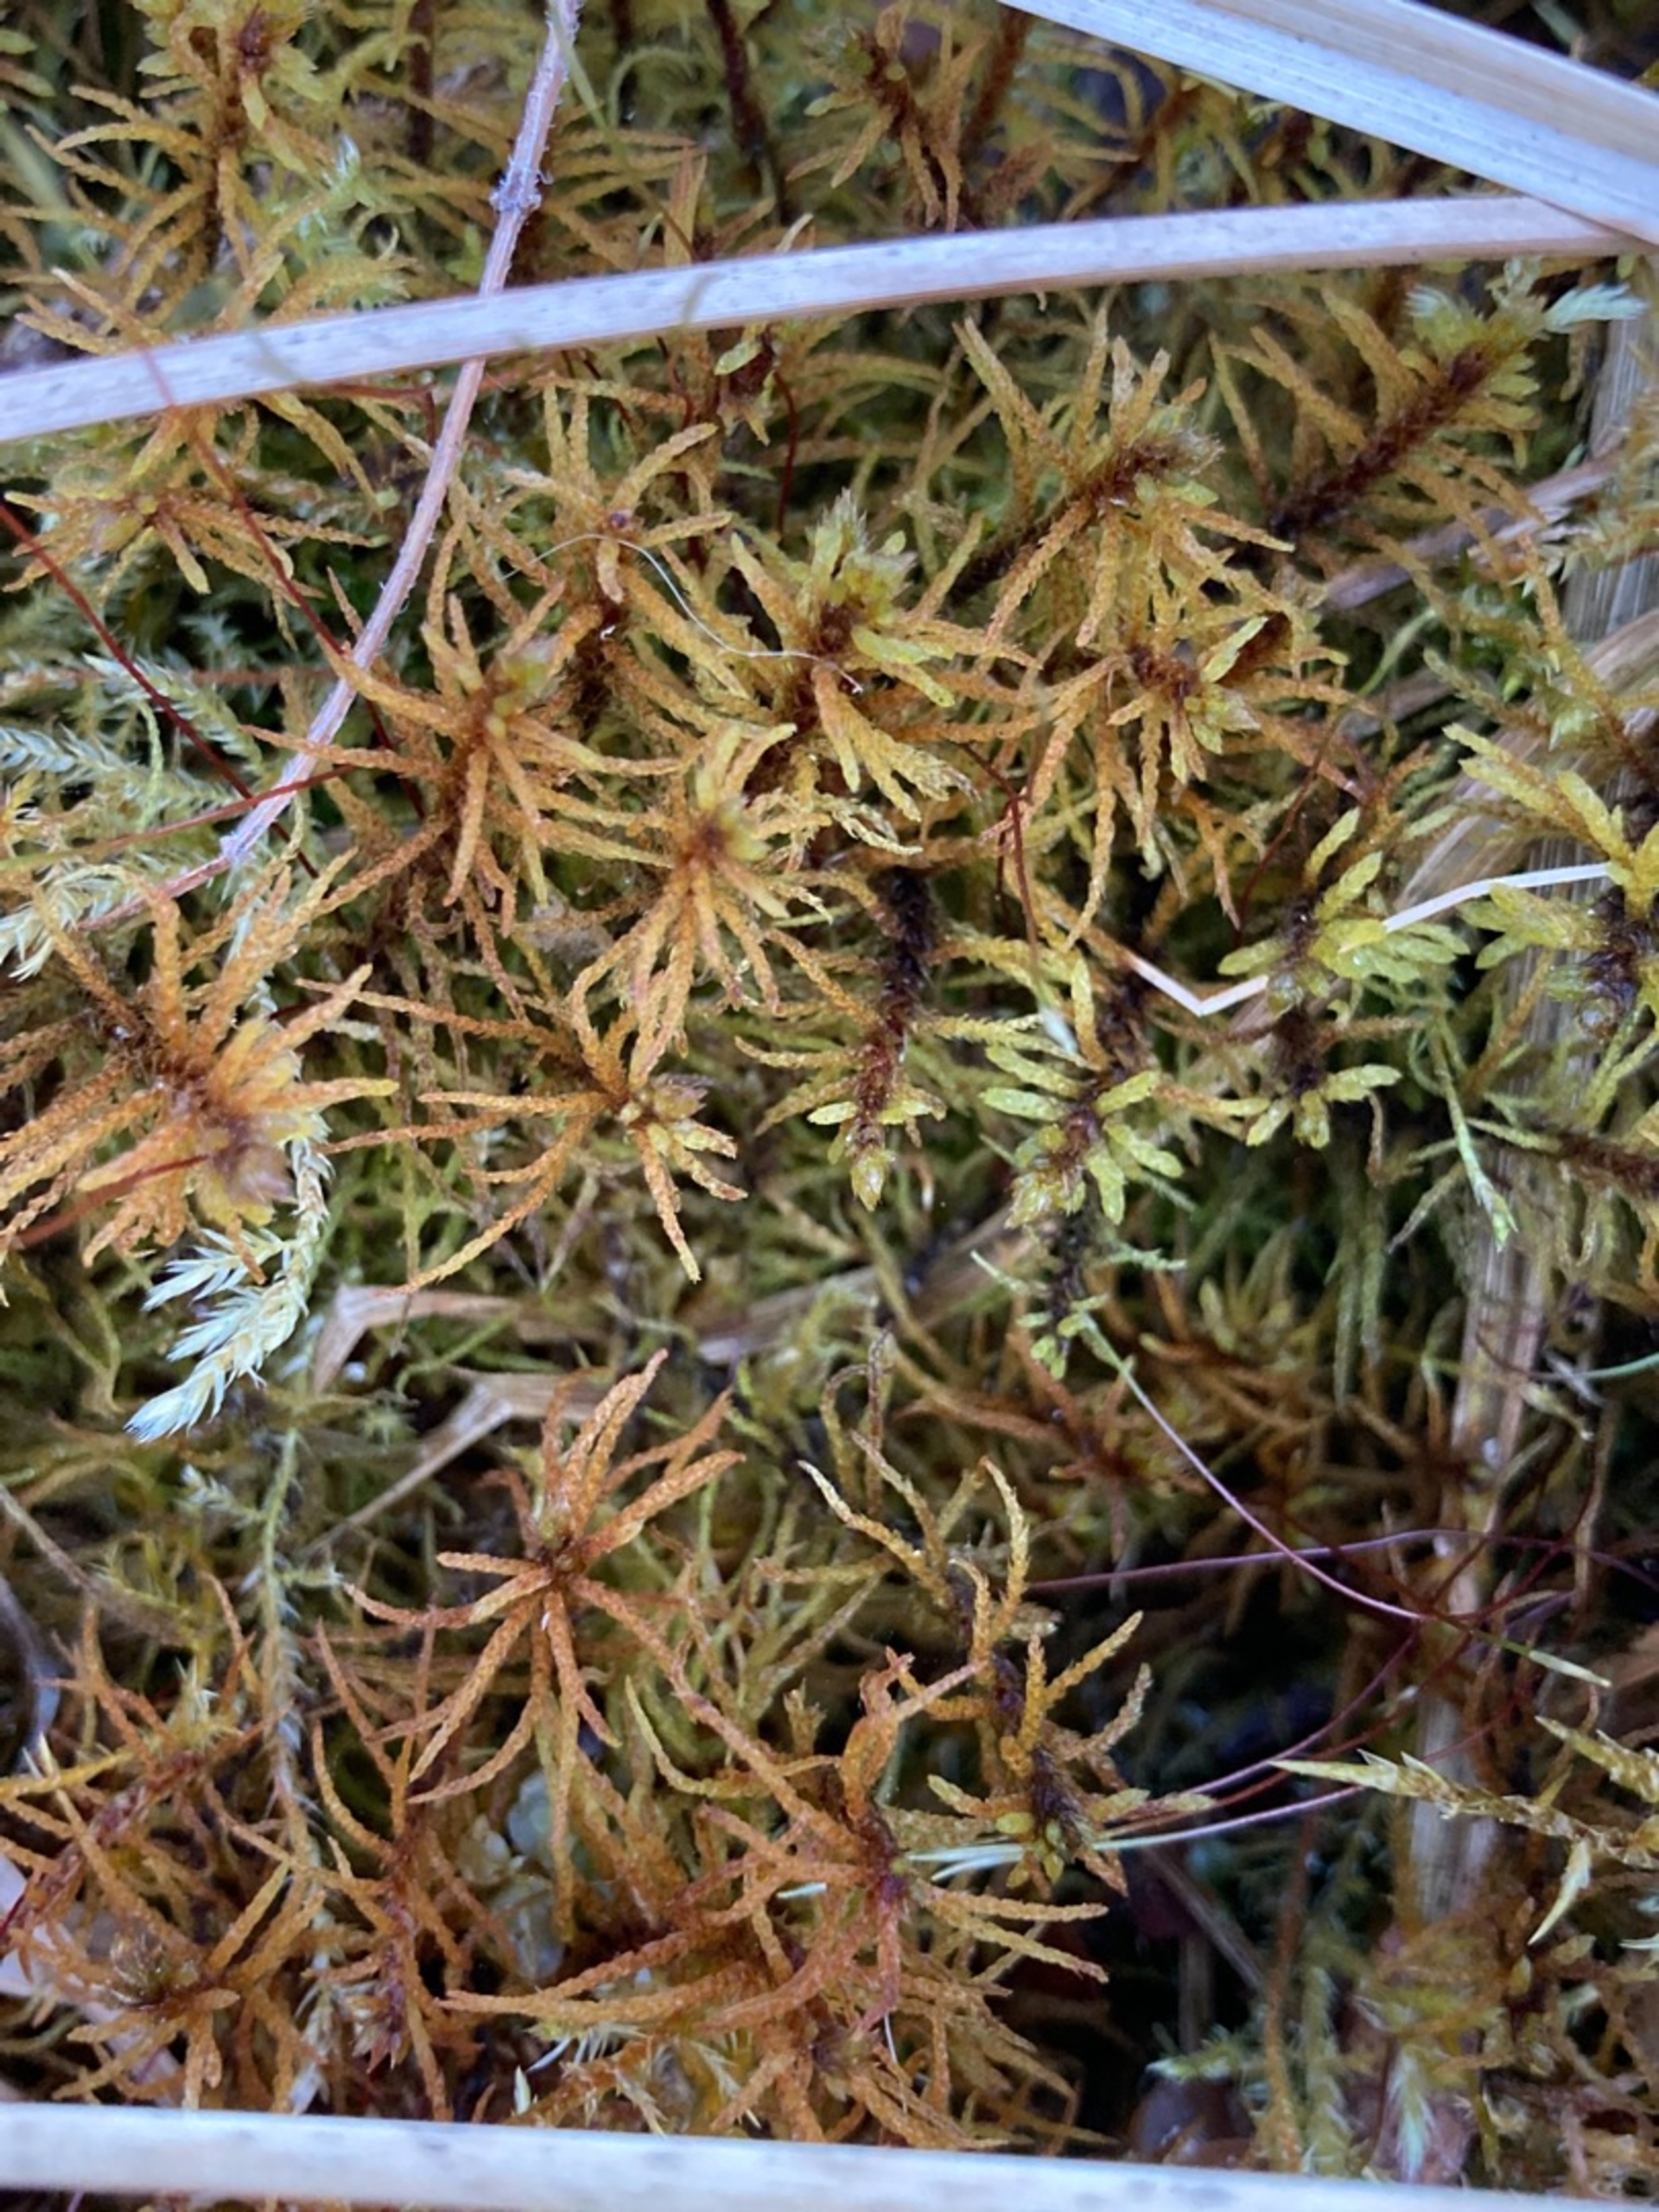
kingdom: Plantae
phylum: Bryophyta
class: Bryopsida
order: Hypnales
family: Helodiaceae
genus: Helodium
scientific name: Helodium blandowii
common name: Kær-gyldenmos
